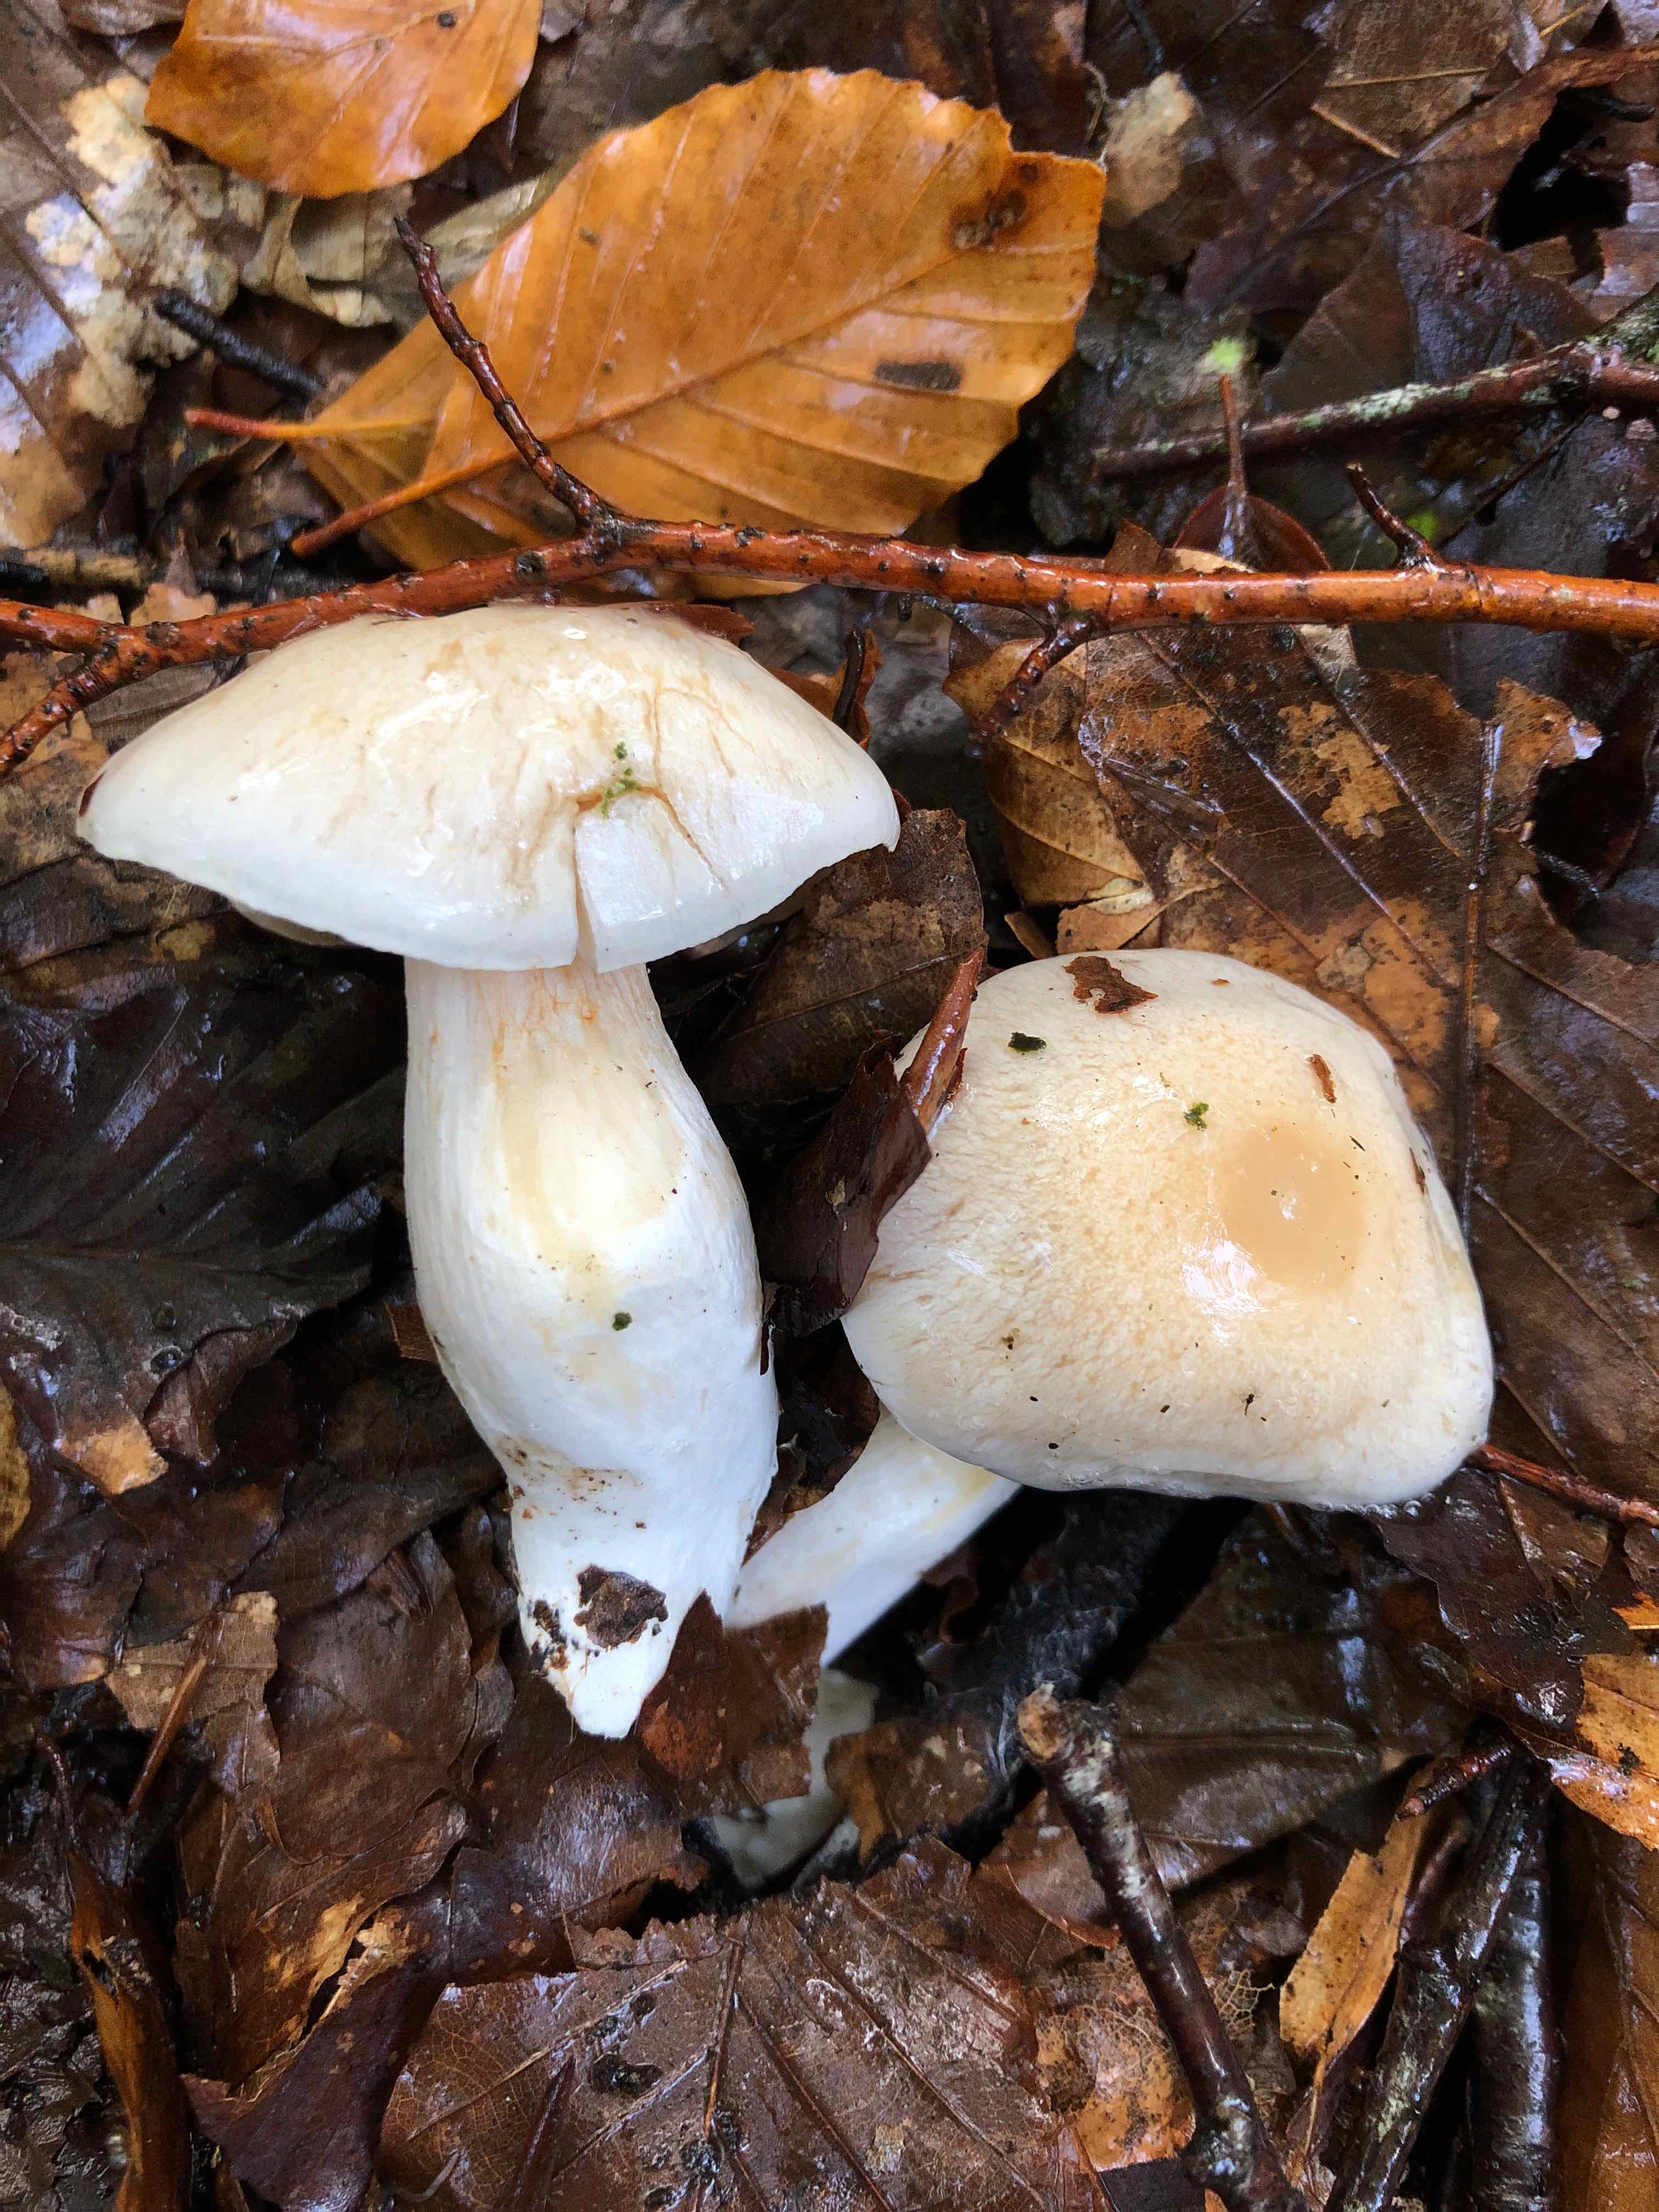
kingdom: Fungi
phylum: Basidiomycota
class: Agaricomycetes
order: Agaricales
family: Cortinariaceae
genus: Thaxterogaster
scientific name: Thaxterogaster barbatus
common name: elfenbens-slørhat
